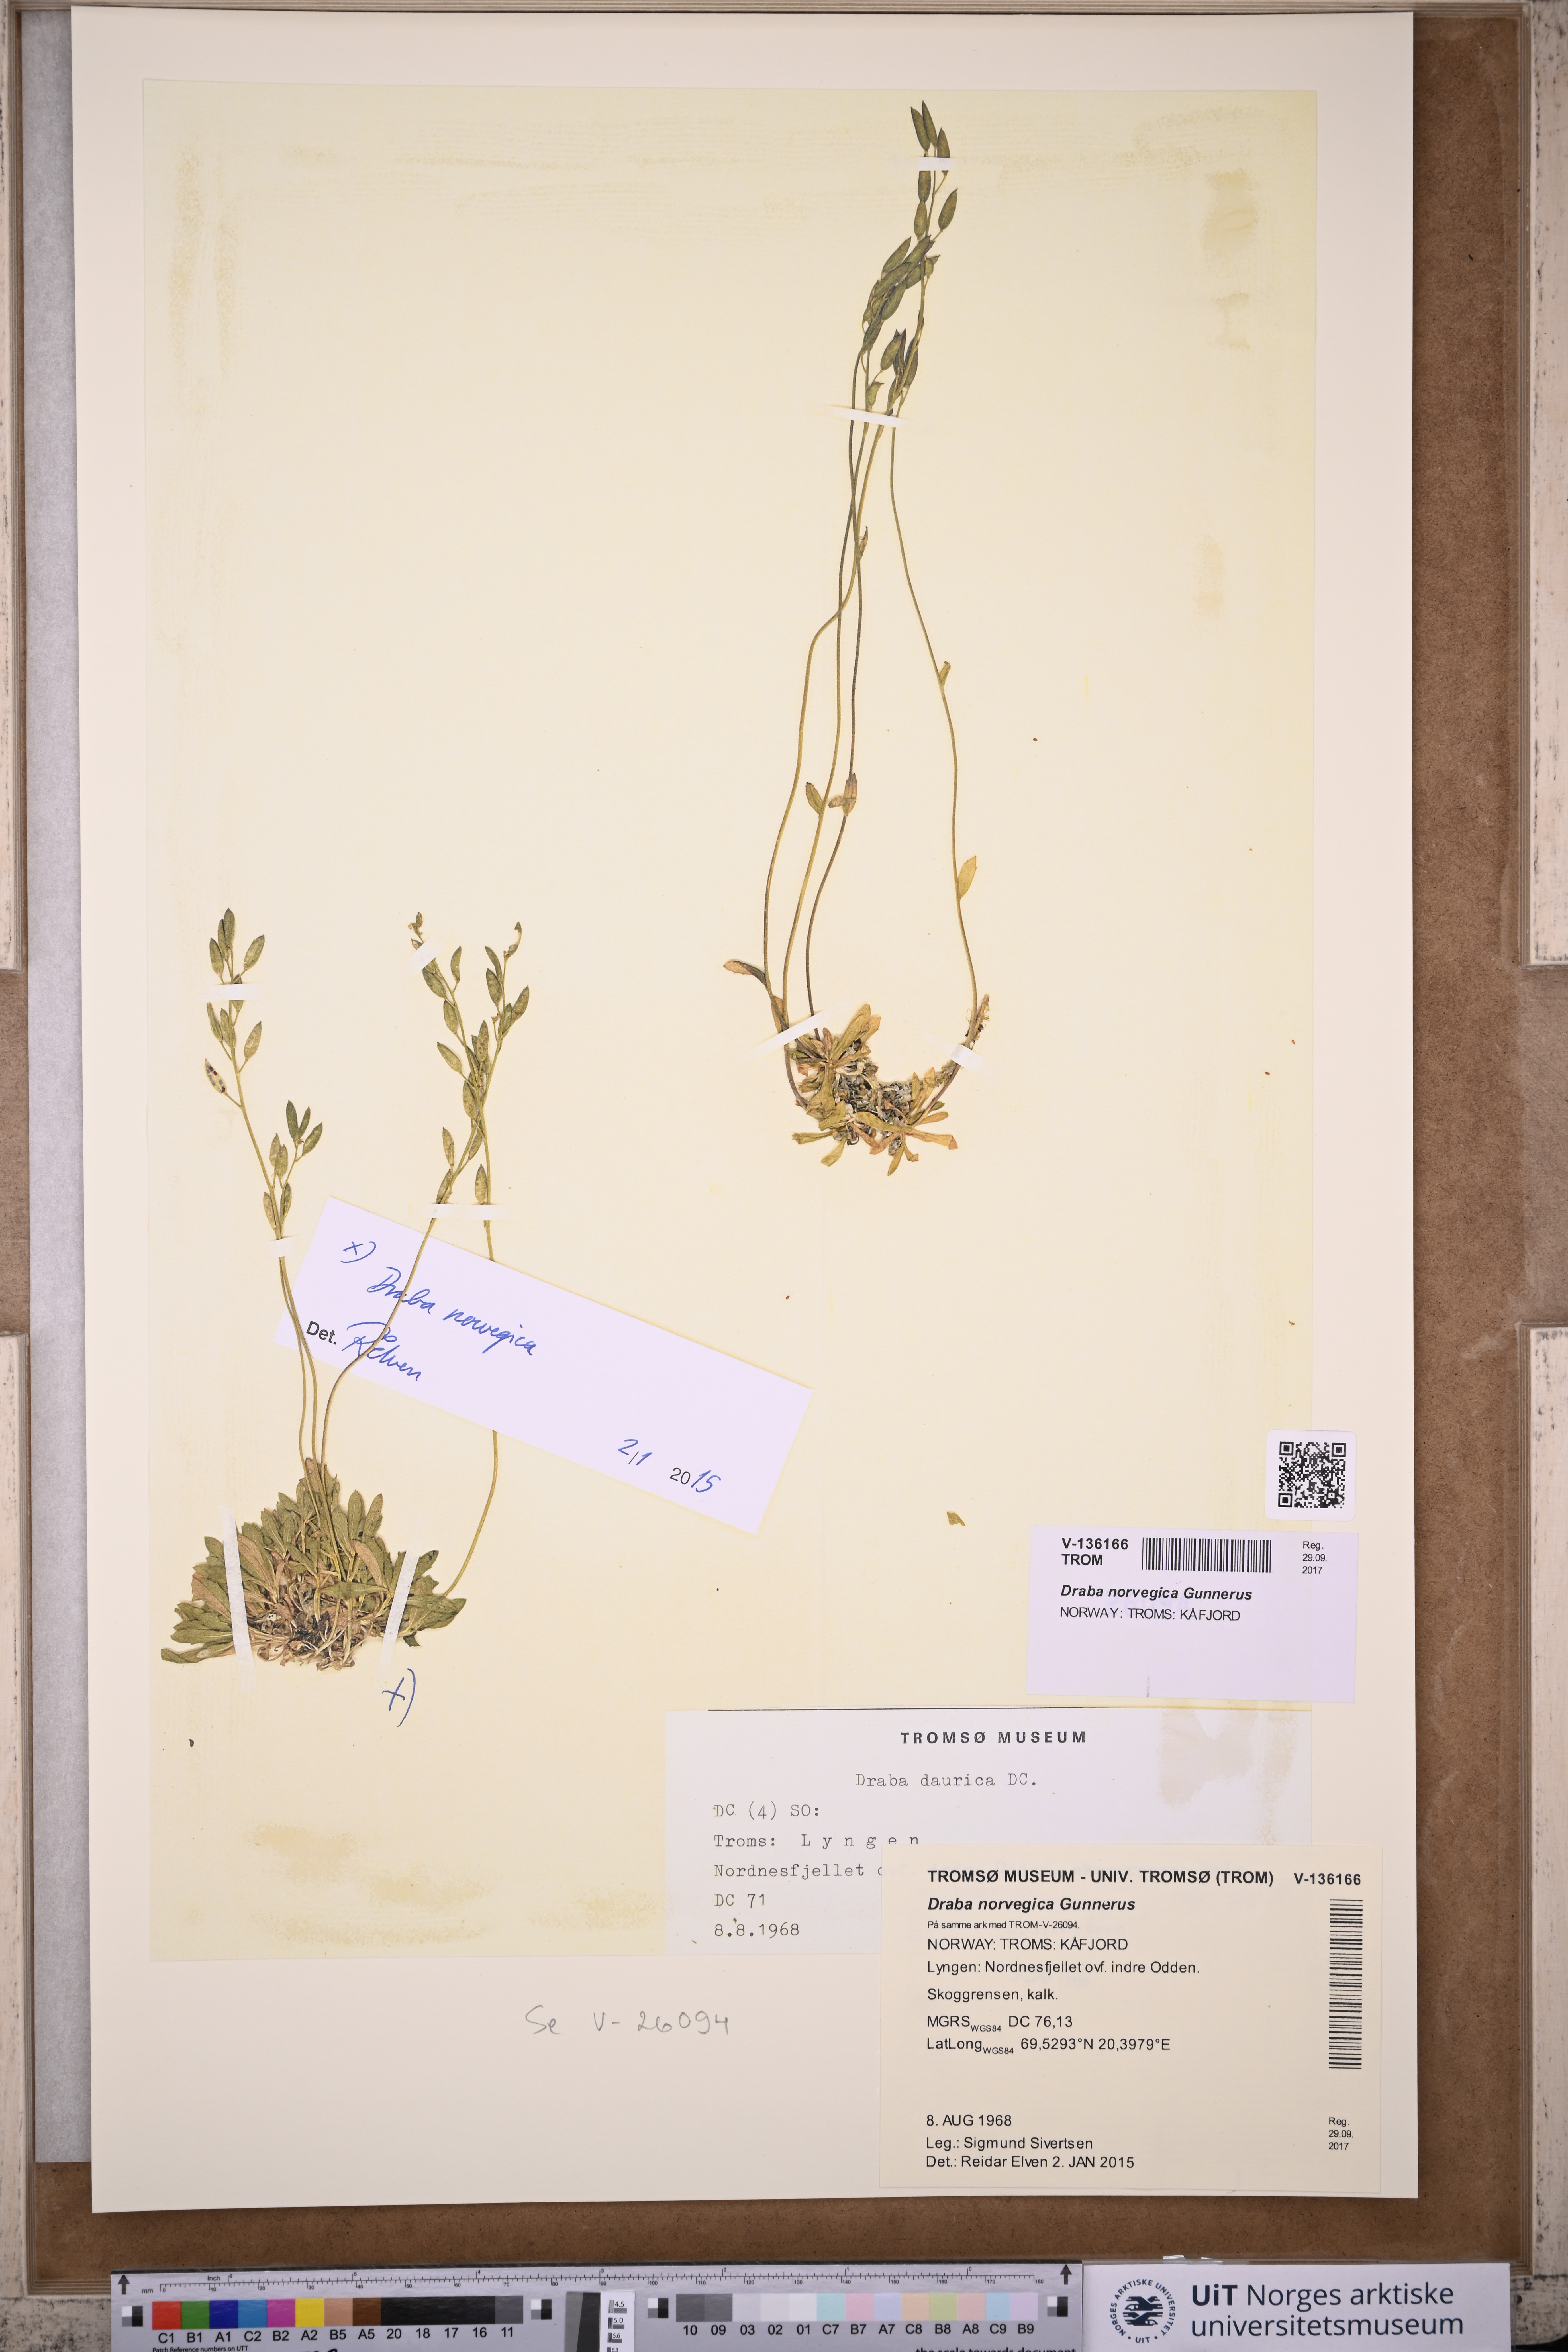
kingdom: Plantae
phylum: Tracheophyta
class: Magnoliopsida
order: Brassicales
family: Brassicaceae
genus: Draba
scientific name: Draba norvegica
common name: Rock whitlowgrass
